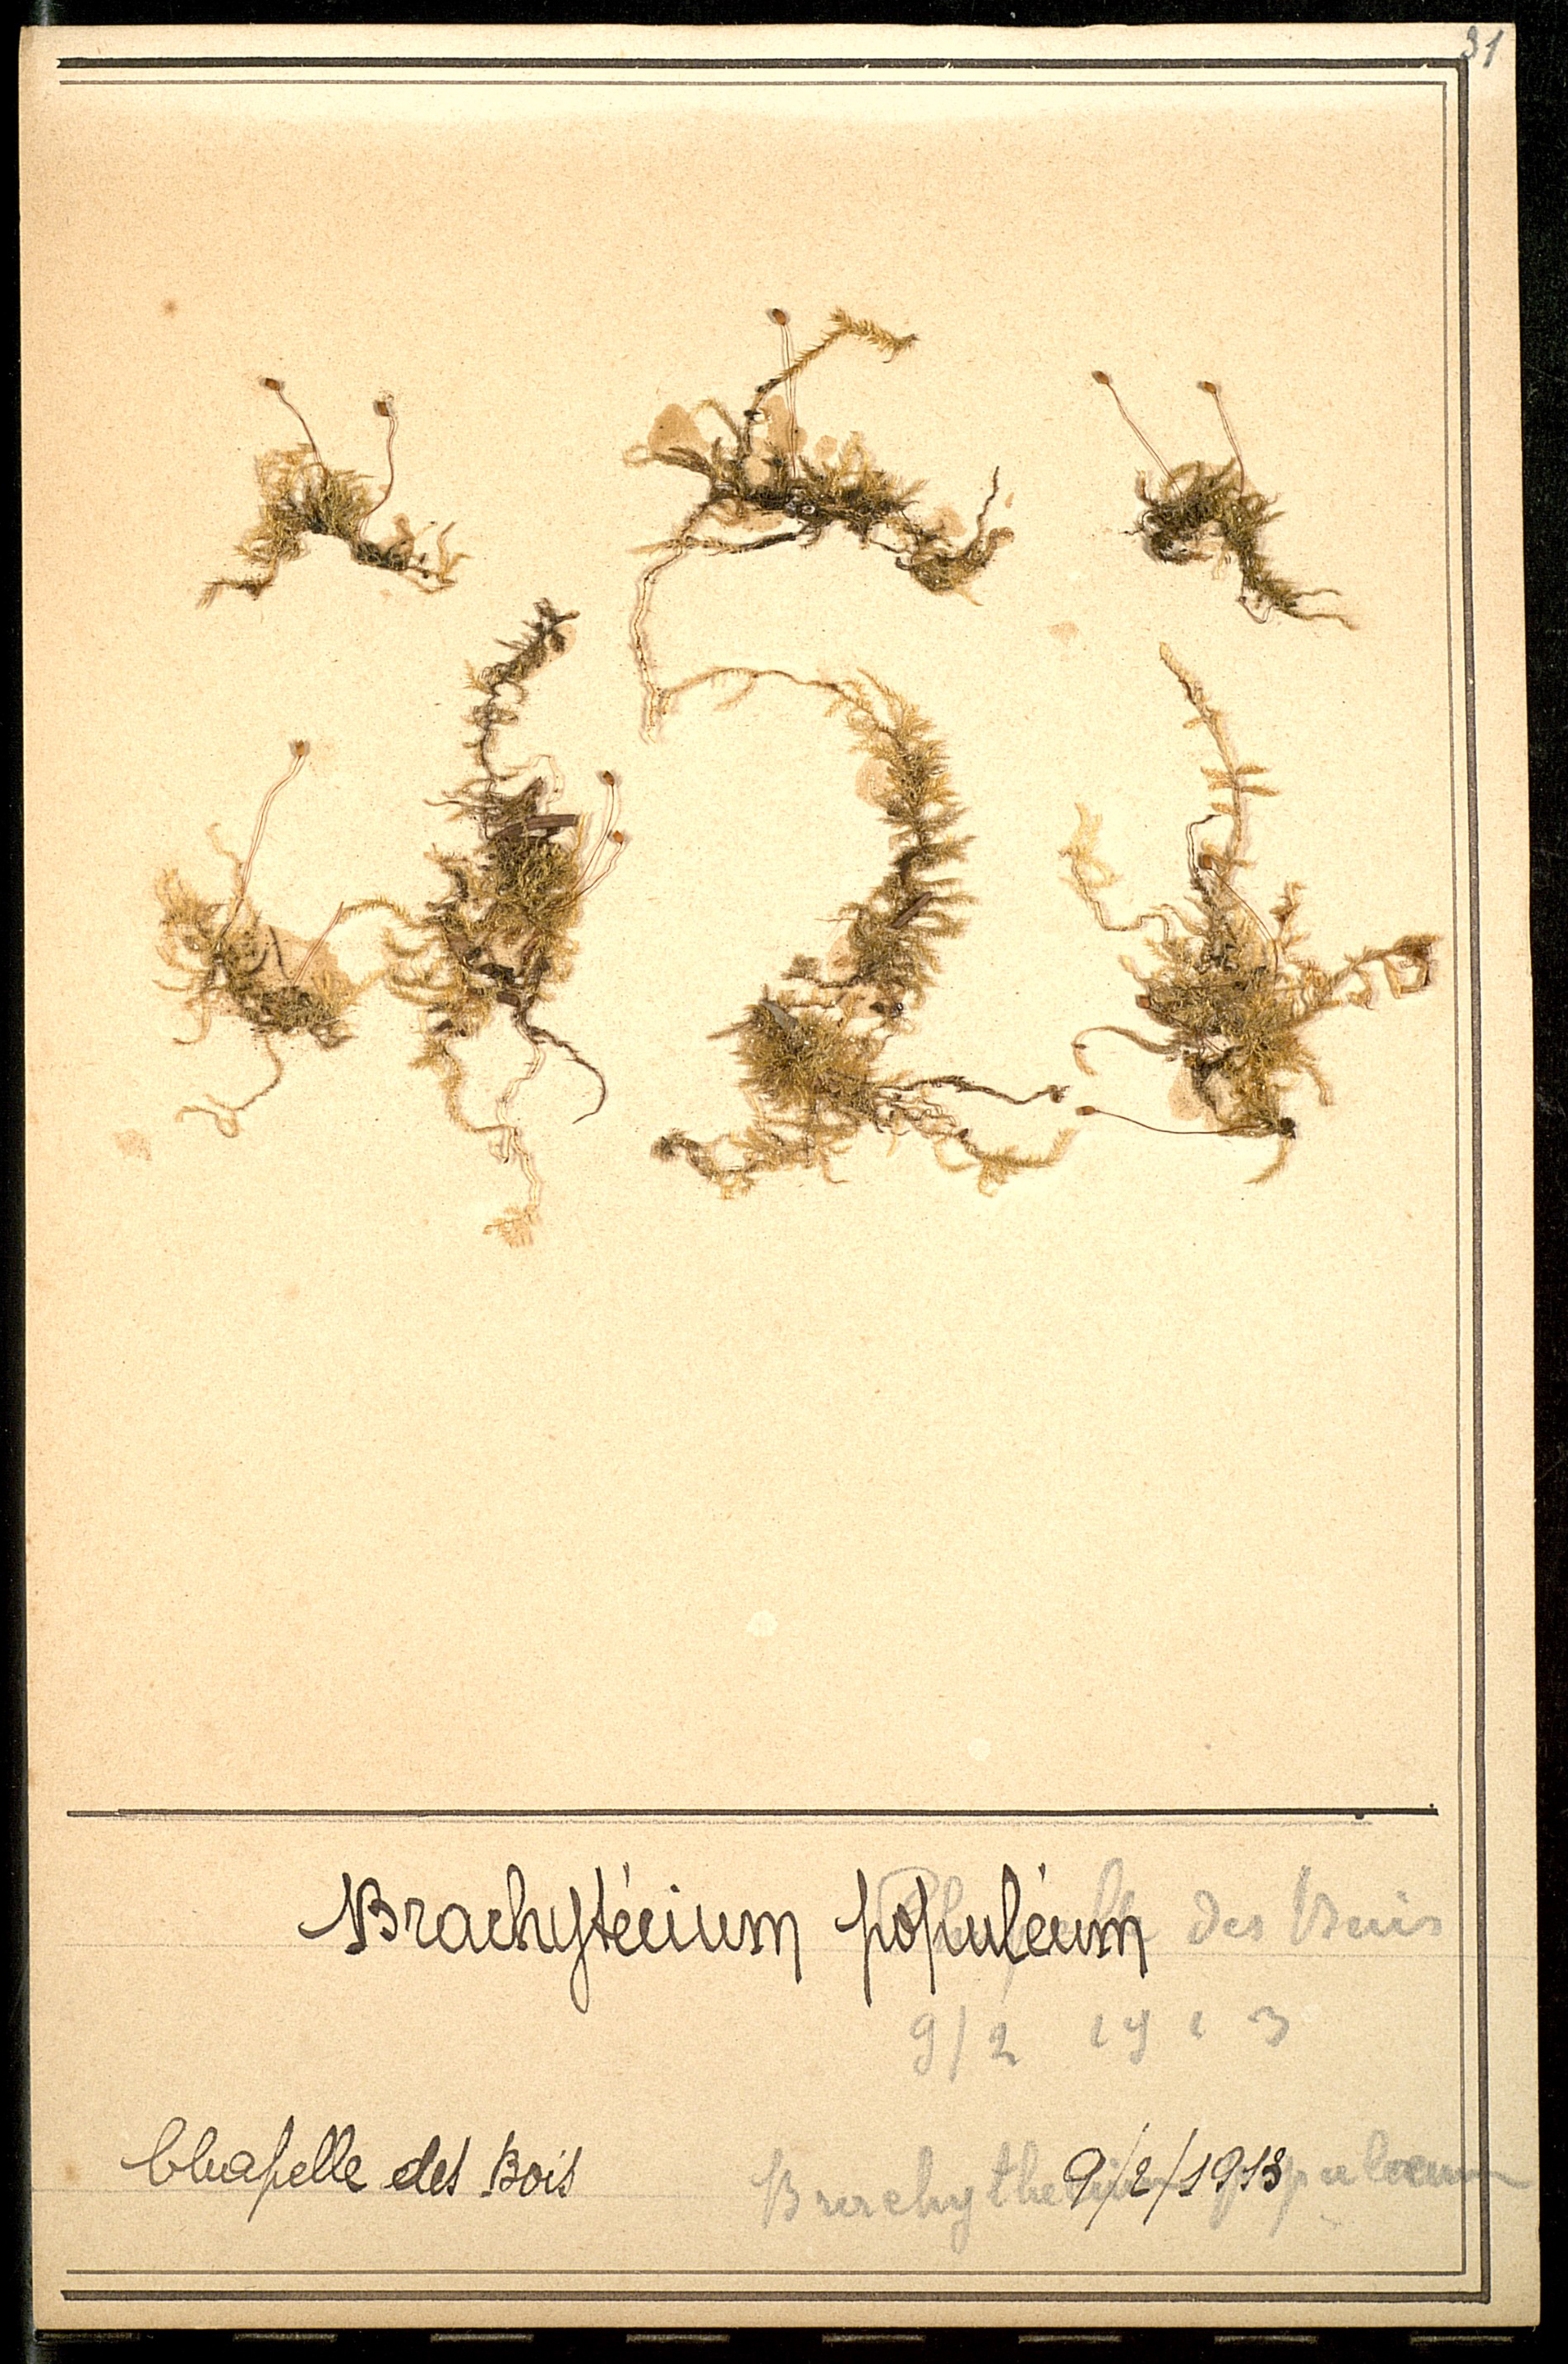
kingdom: Plantae
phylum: Bryophyta
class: Bryopsida
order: Hypnales
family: Brachytheciaceae
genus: Sciuro-hypnum
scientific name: Sciuro-hypnum populeum
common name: Matted feather-moss
